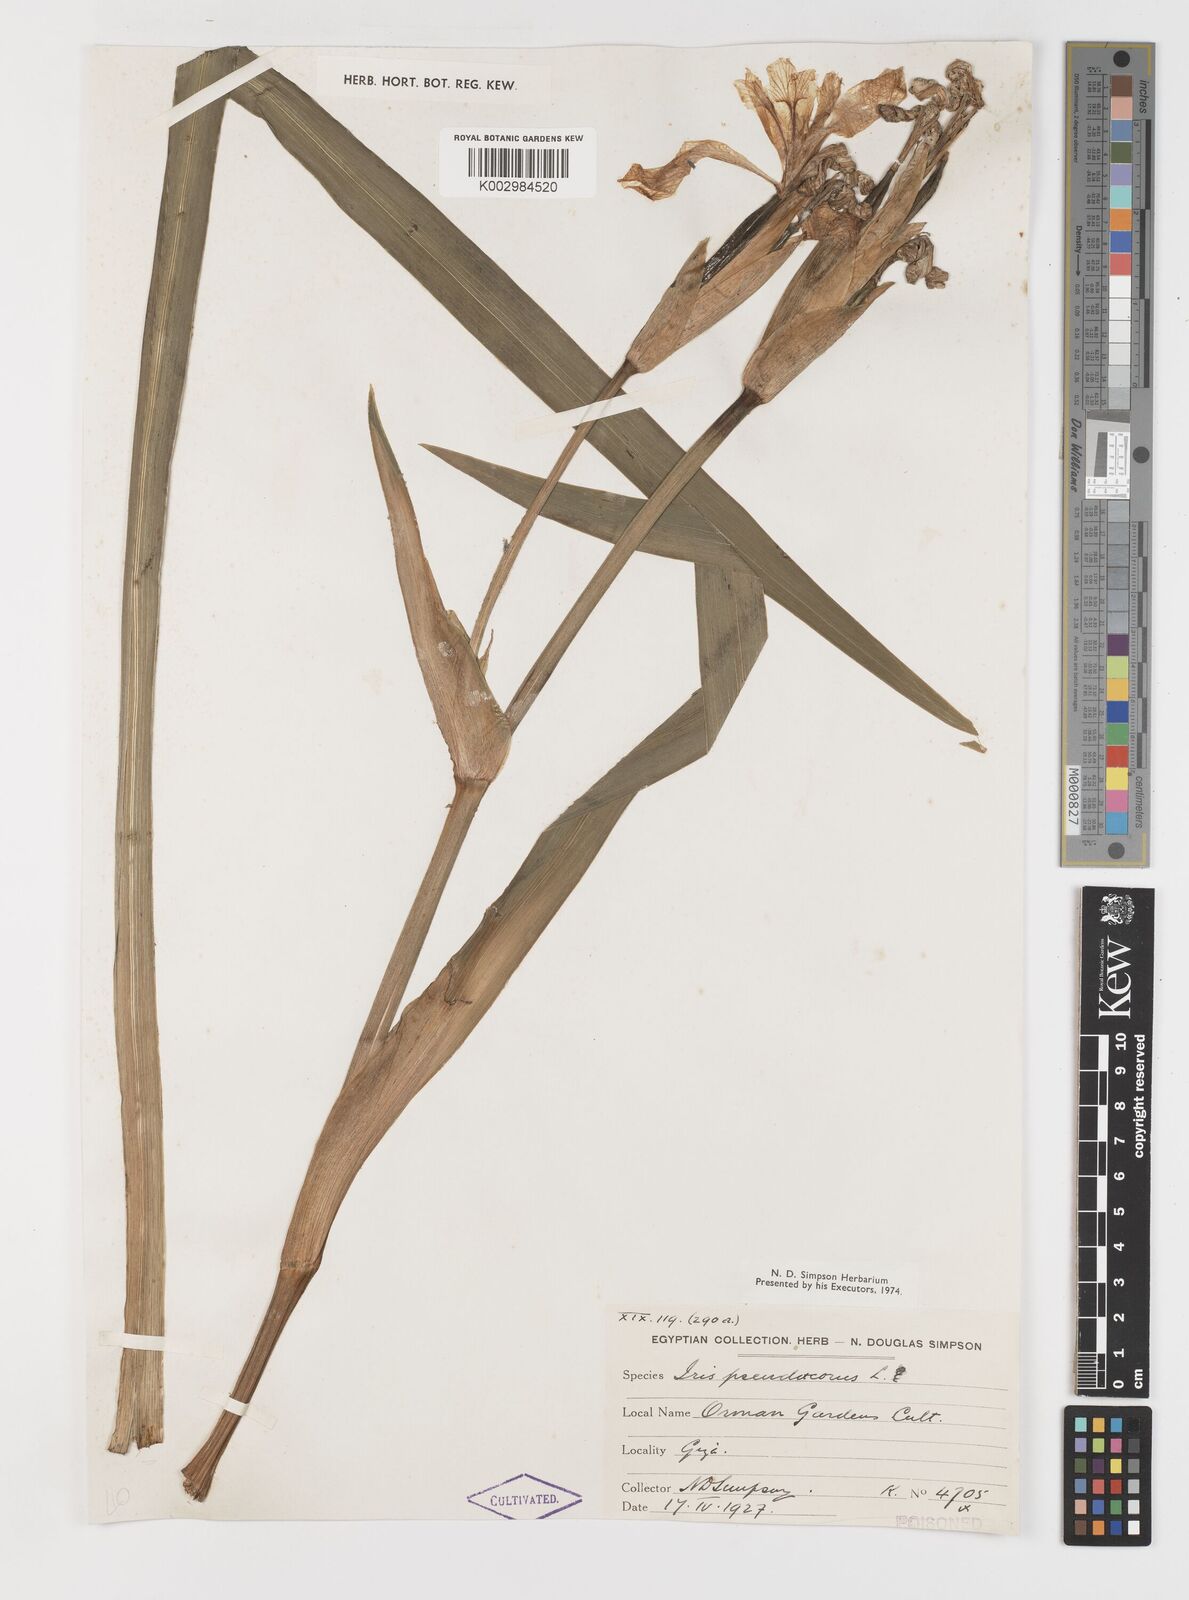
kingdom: Plantae
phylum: Tracheophyta
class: Liliopsida
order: Asparagales
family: Iridaceae
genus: Iris
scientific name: Iris pseudacorus
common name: Yellow flag
